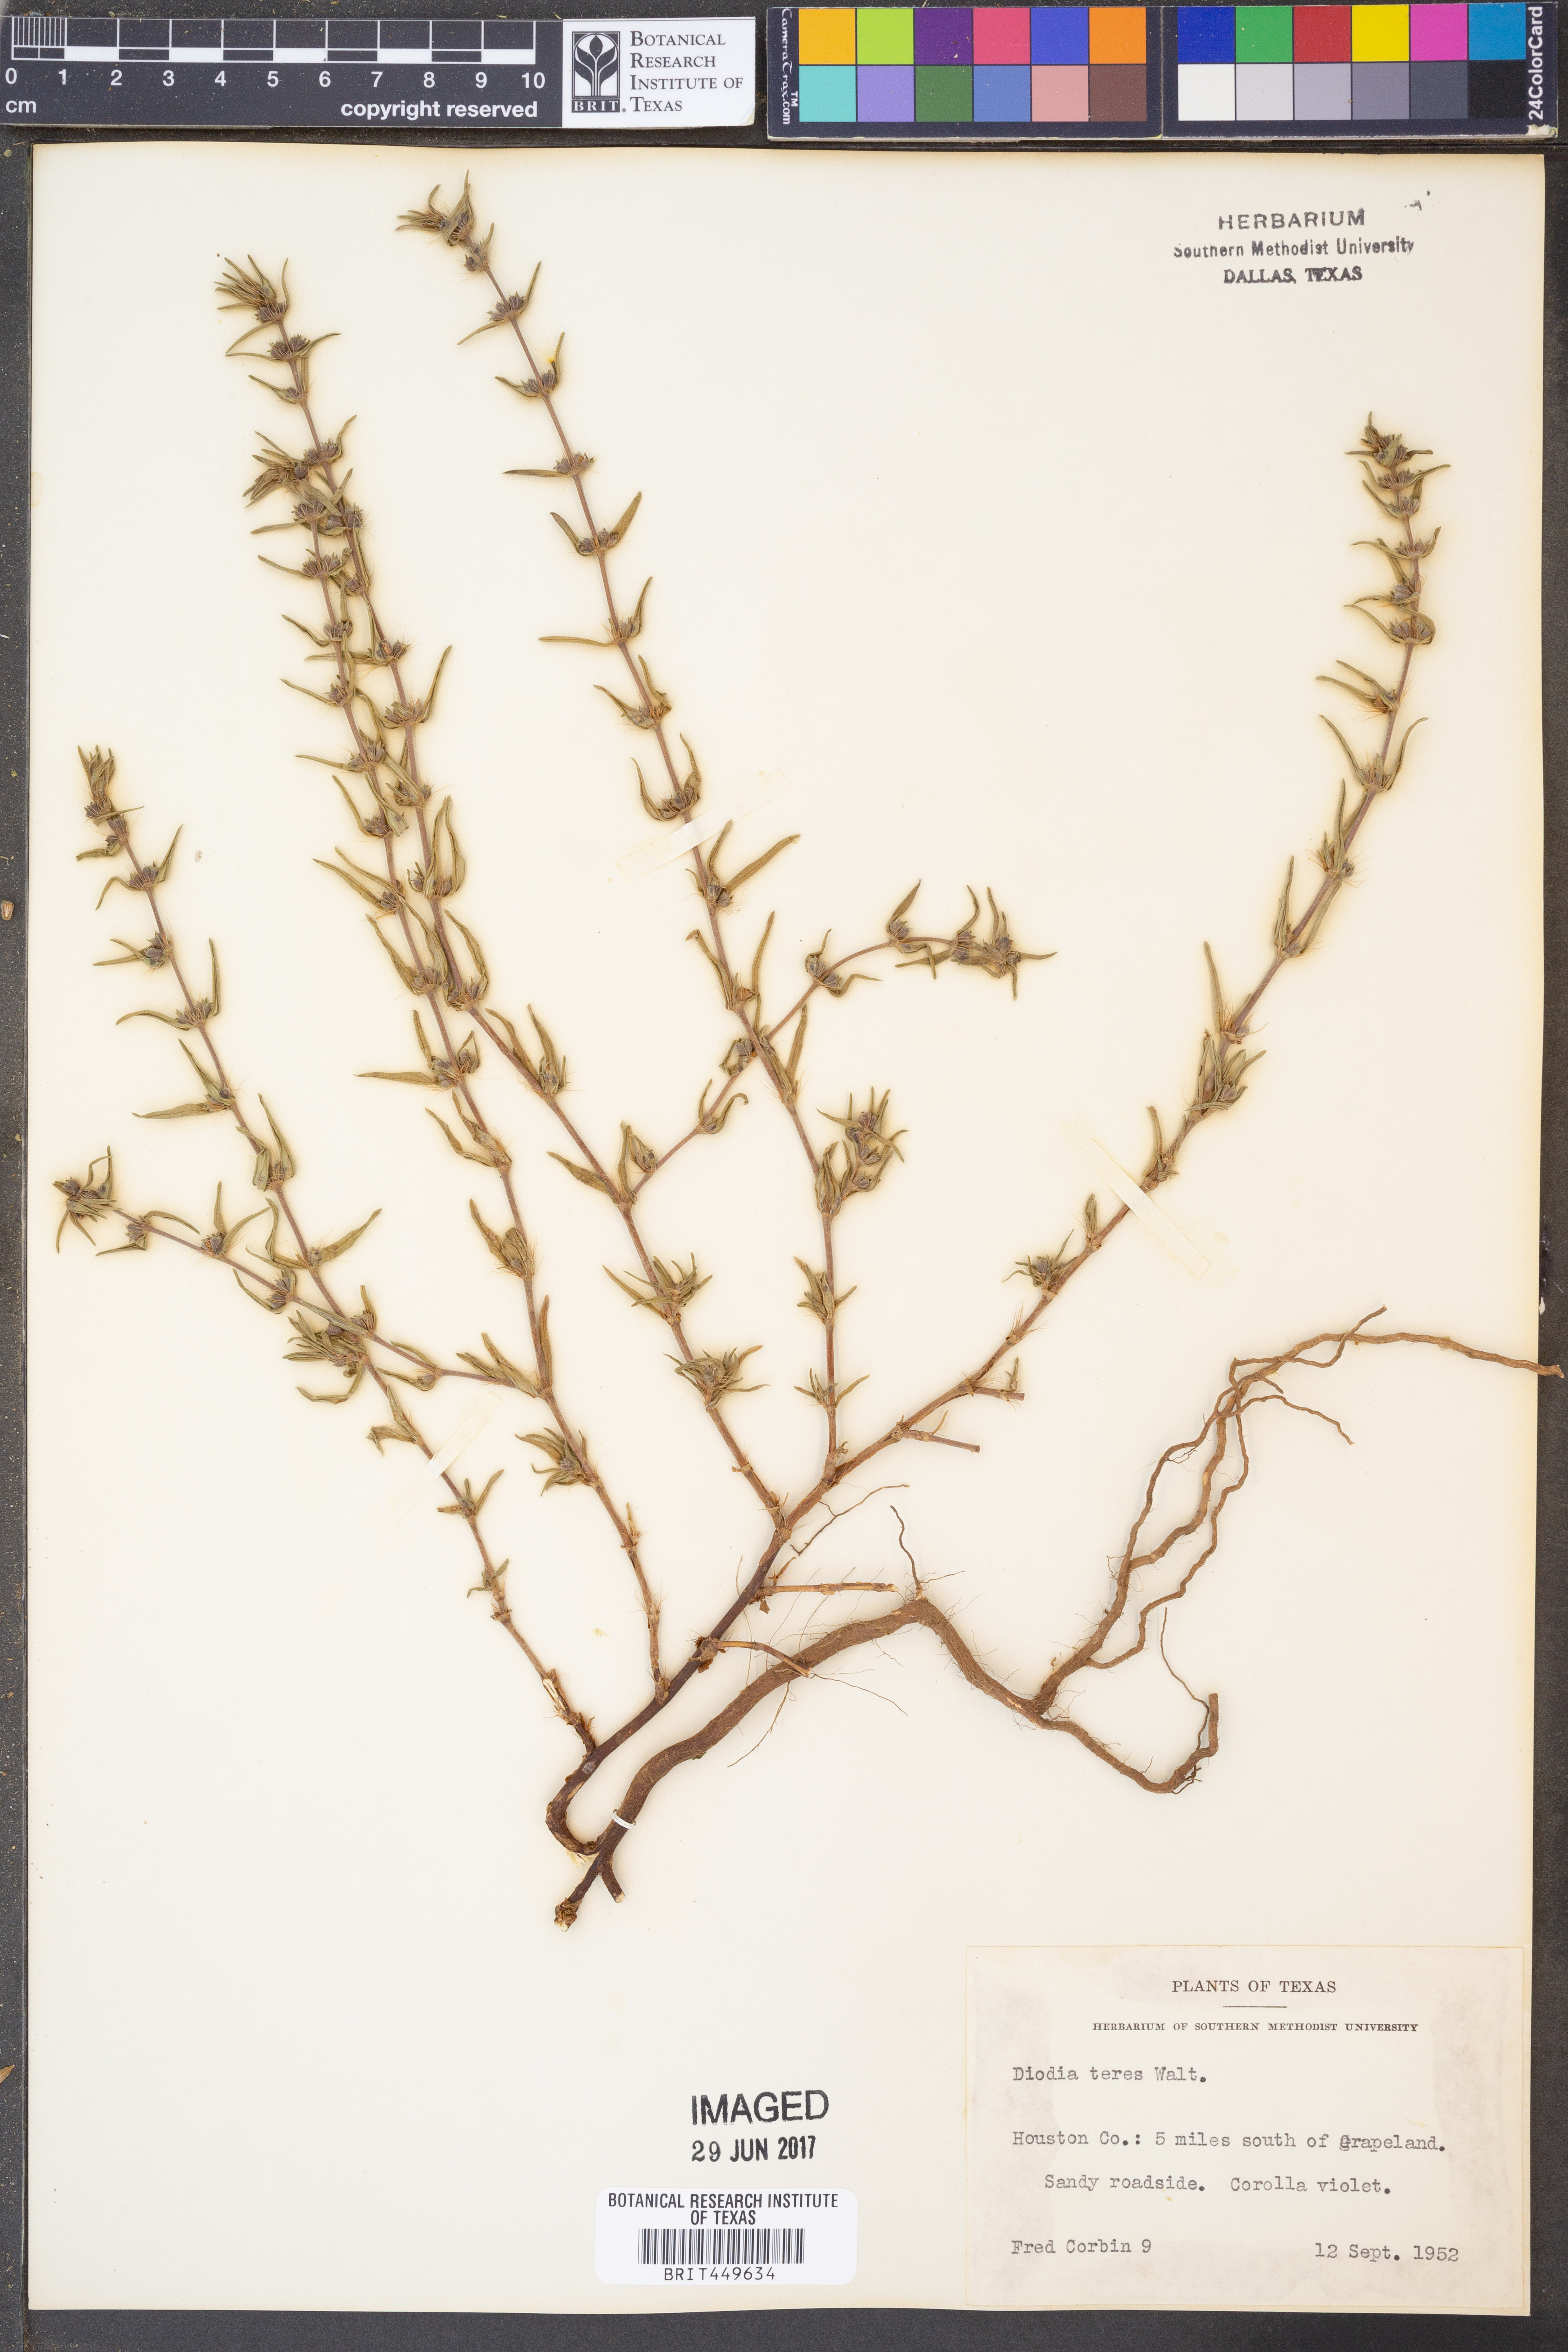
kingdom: Plantae
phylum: Tracheophyta
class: Magnoliopsida
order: Gentianales
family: Rubiaceae
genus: Hexasepalum
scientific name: Hexasepalum teres
